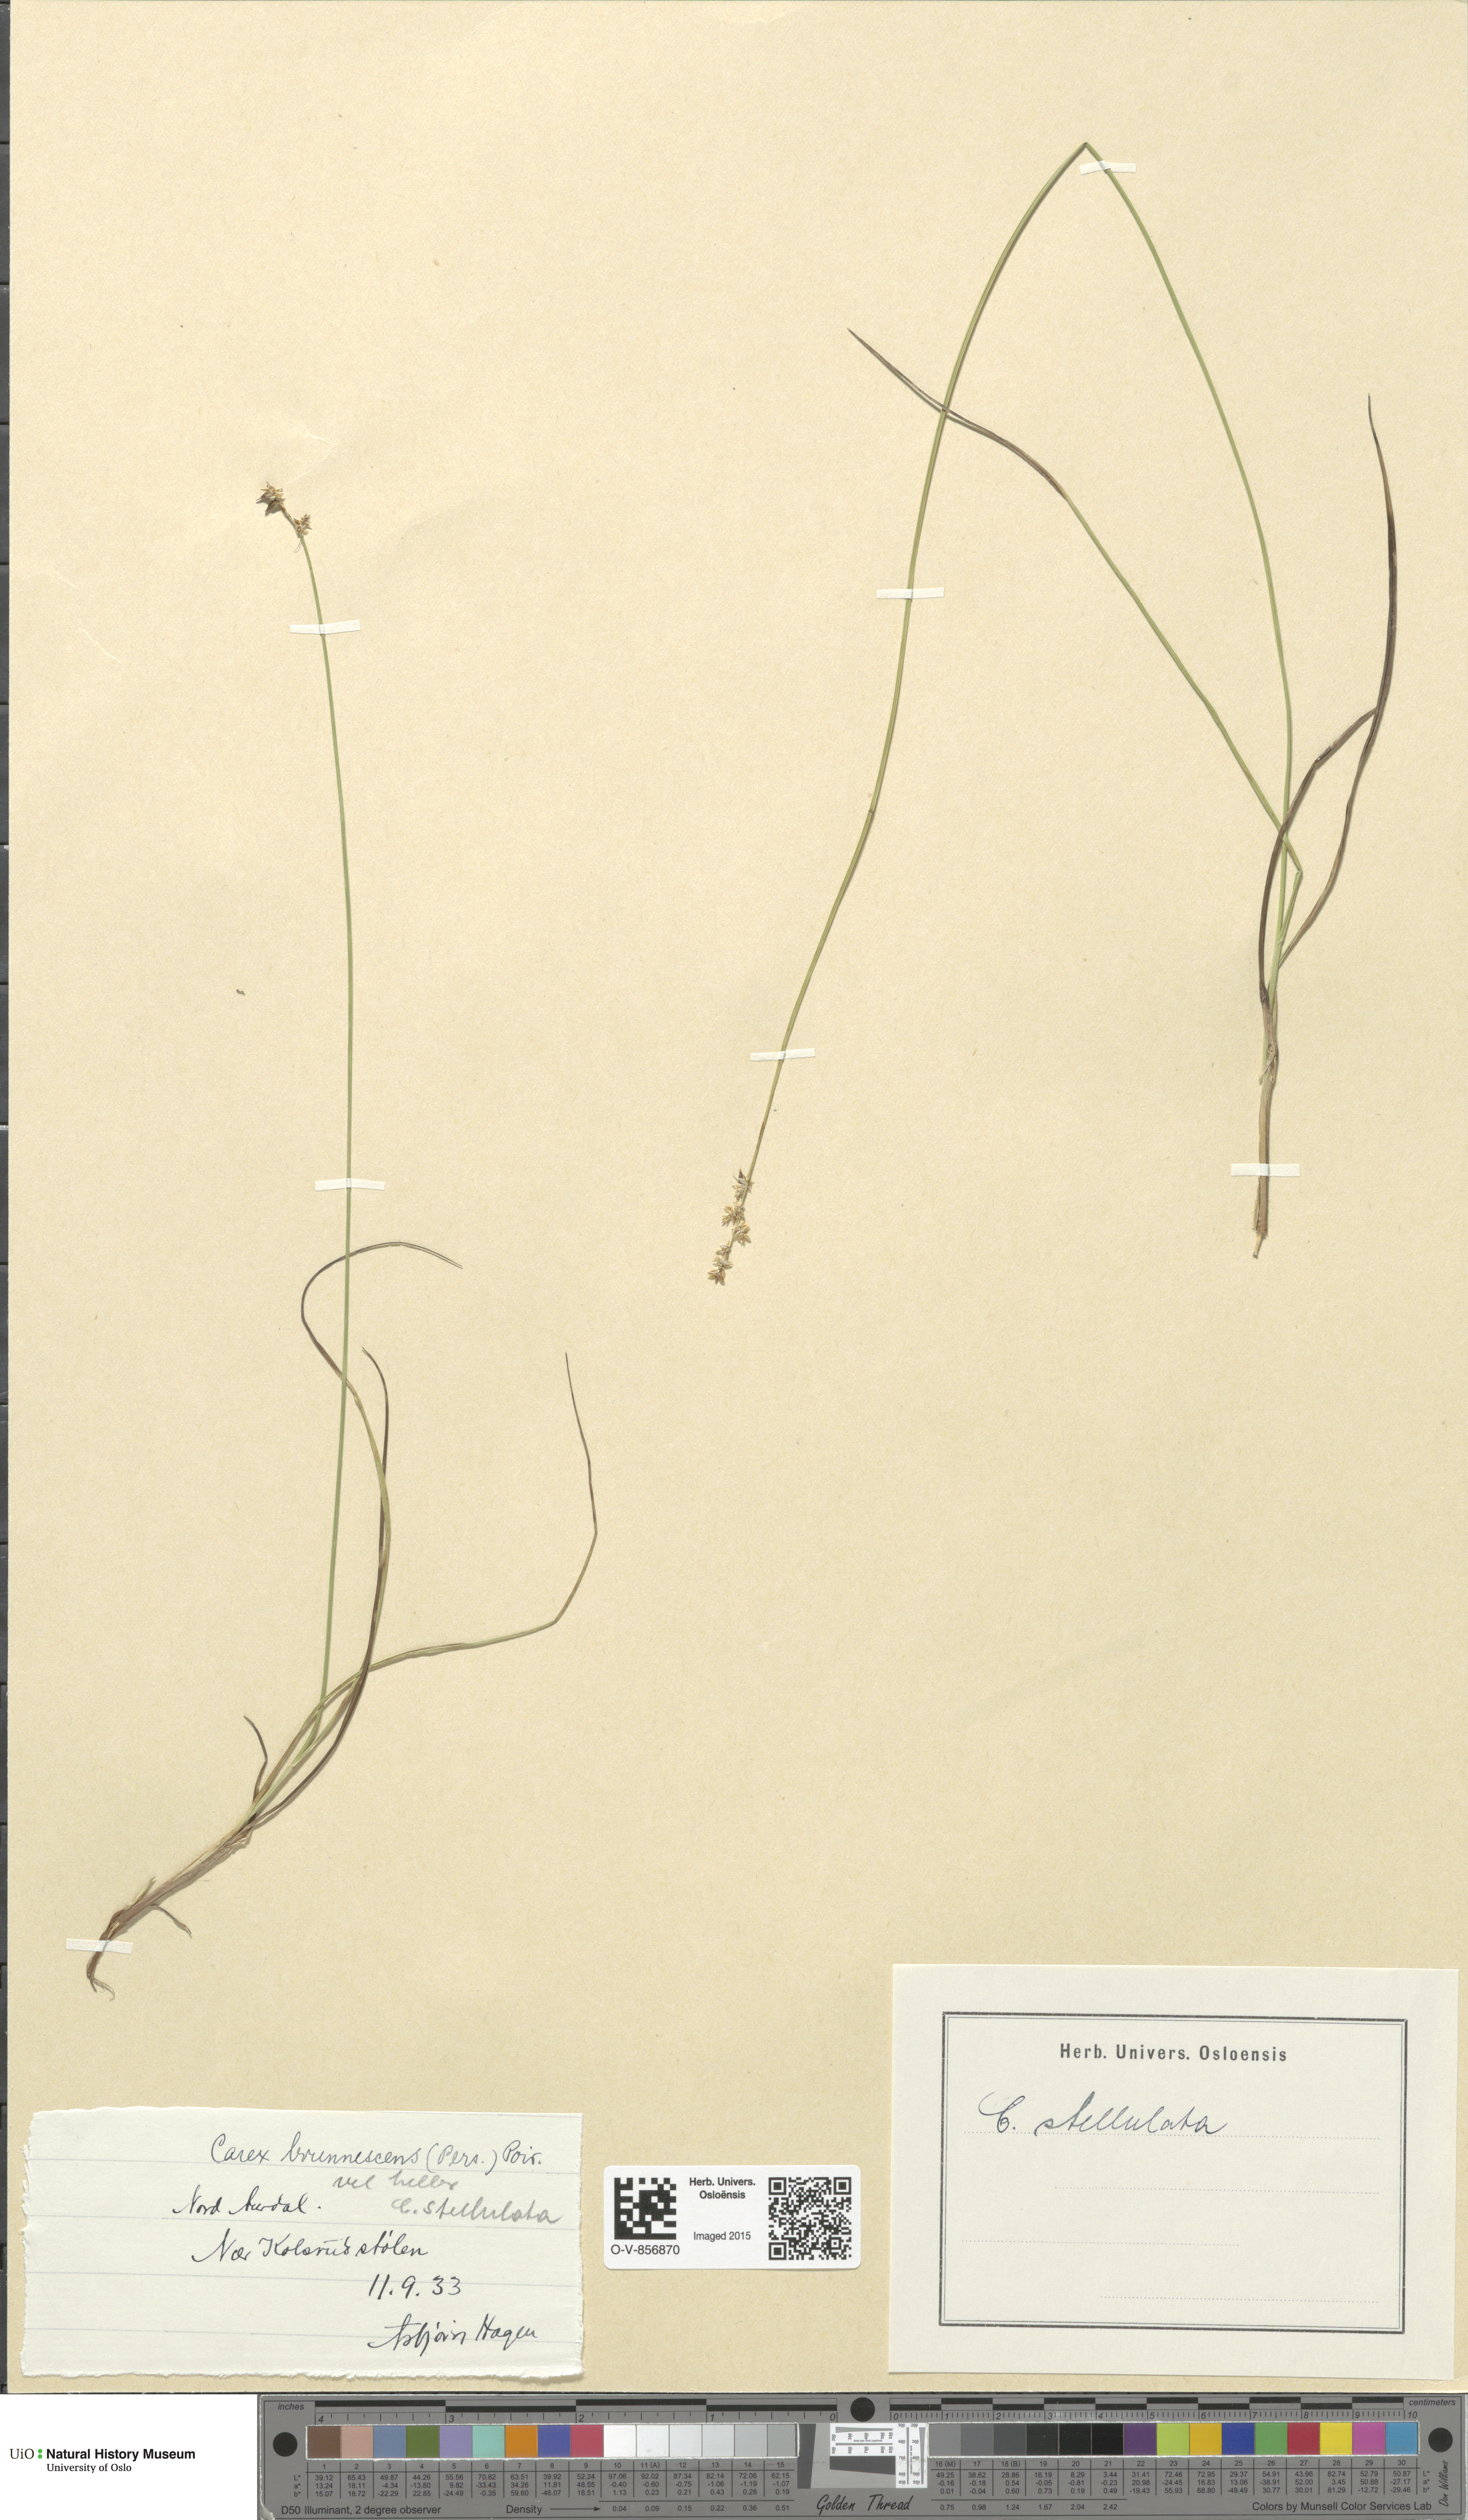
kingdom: Plantae
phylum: Tracheophyta
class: Liliopsida
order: Poales
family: Cyperaceae
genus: Carex
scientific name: Carex echinata
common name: Star sedge
